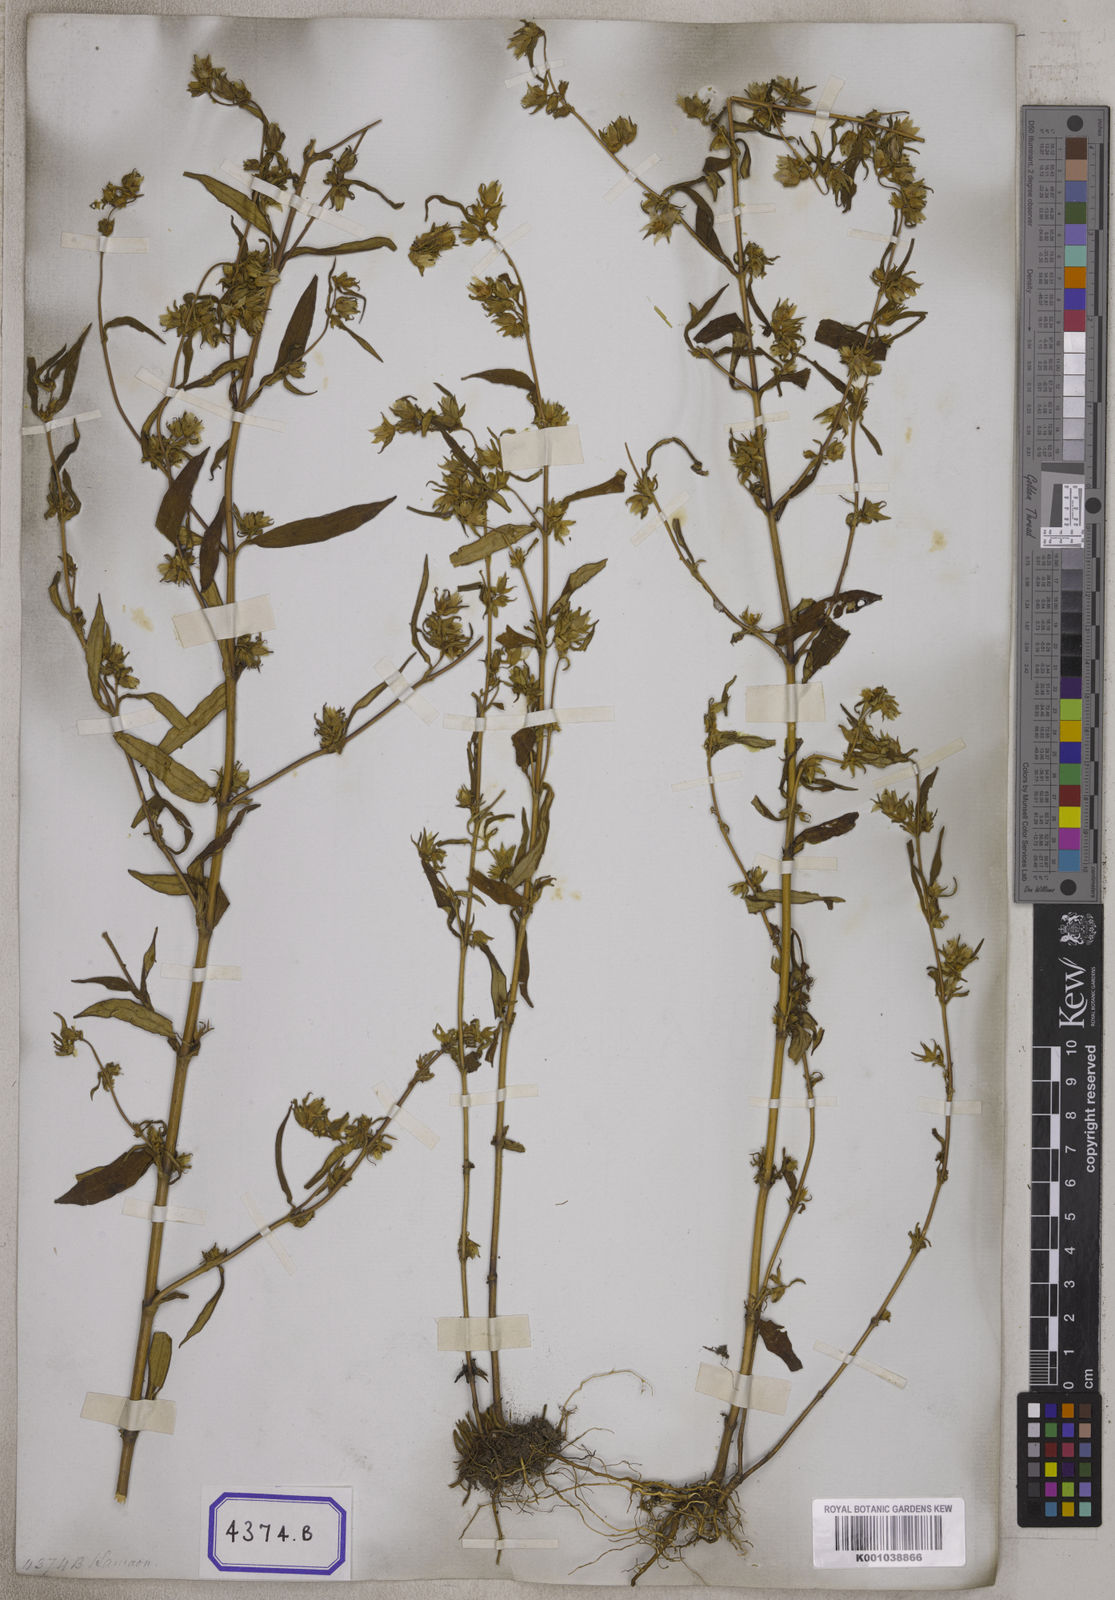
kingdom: Plantae
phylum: Tracheophyta
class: Magnoliopsida
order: Gentianales
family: Gentianaceae
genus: Swertia
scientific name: Swertia paniculata
